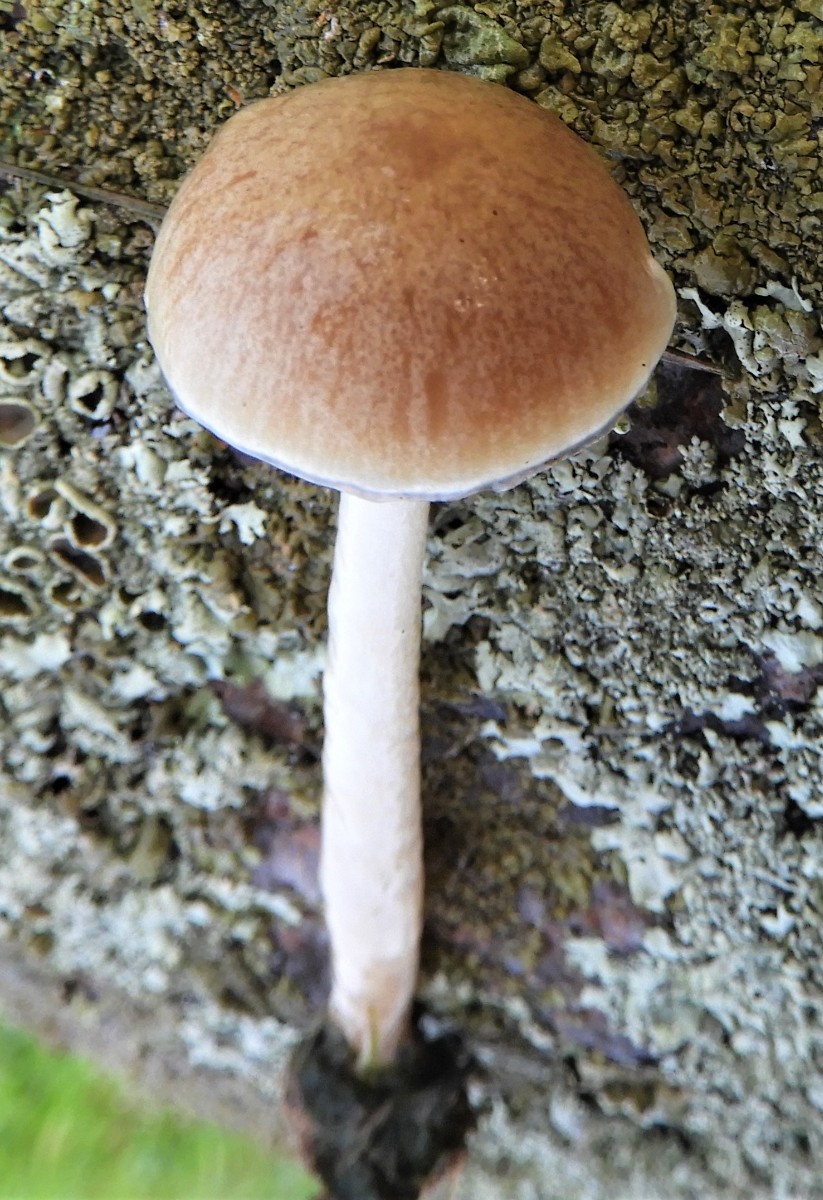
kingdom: Fungi
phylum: Basidiomycota
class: Agaricomycetes
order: Agaricales
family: Strophariaceae
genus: Protostropharia
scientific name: Protostropharia semiglobata
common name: halvkugleformet bredblad
